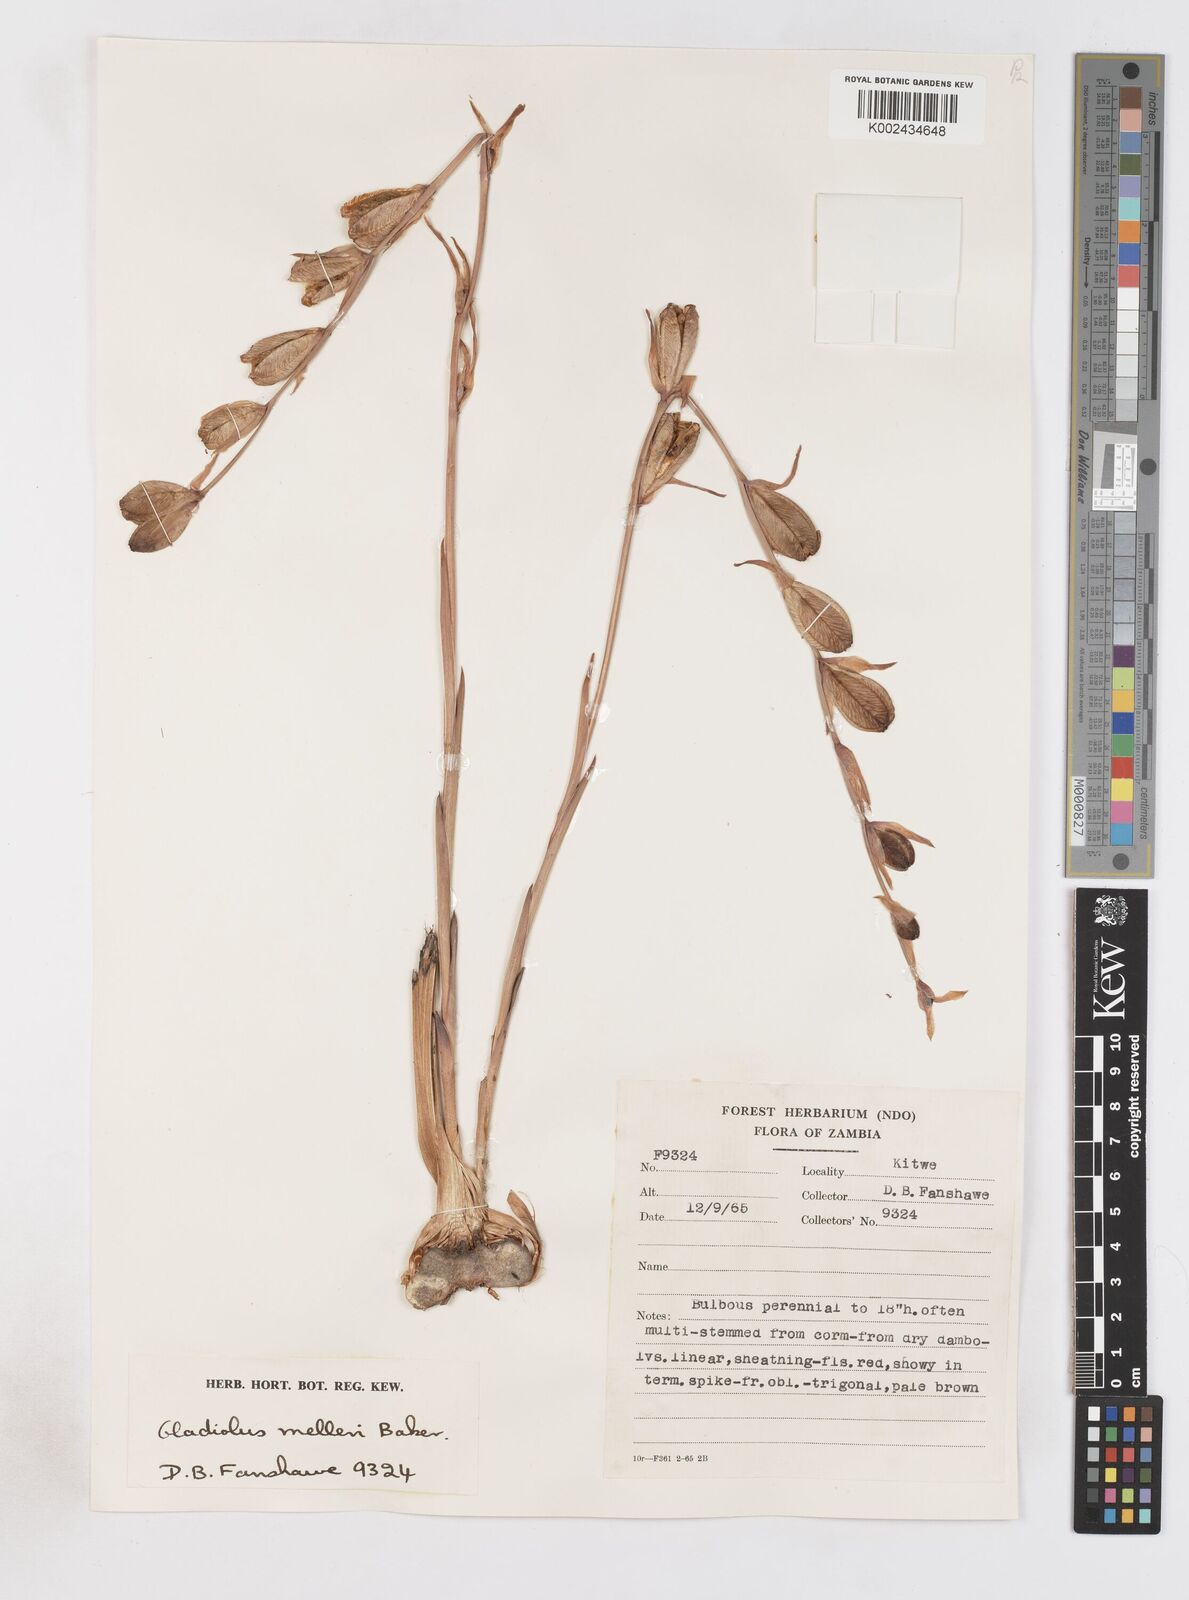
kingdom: Plantae
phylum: Tracheophyta
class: Liliopsida
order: Asparagales
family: Iridaceae
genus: Gladiolus
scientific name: Gladiolus melleri
